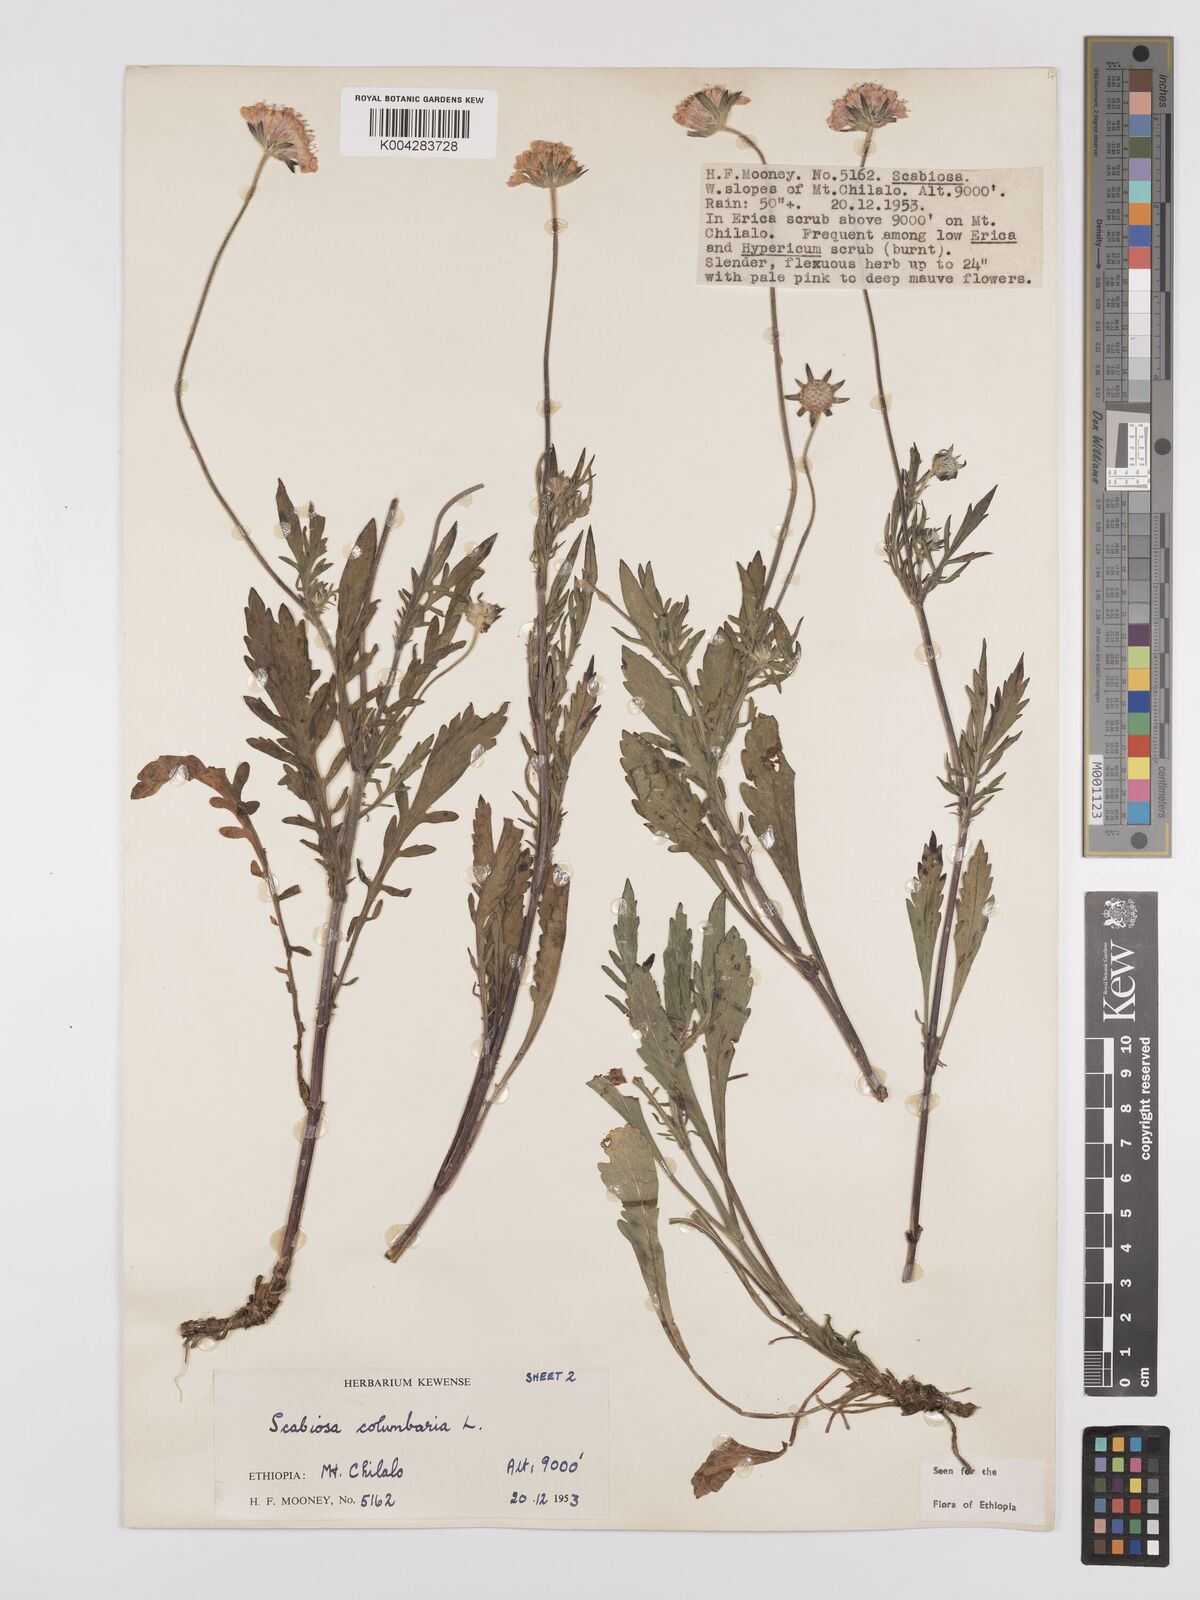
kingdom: Plantae
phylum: Tracheophyta
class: Magnoliopsida
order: Dipsacales
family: Caprifoliaceae
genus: Scabiosa
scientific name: Scabiosa columbaria
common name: Small scabious
